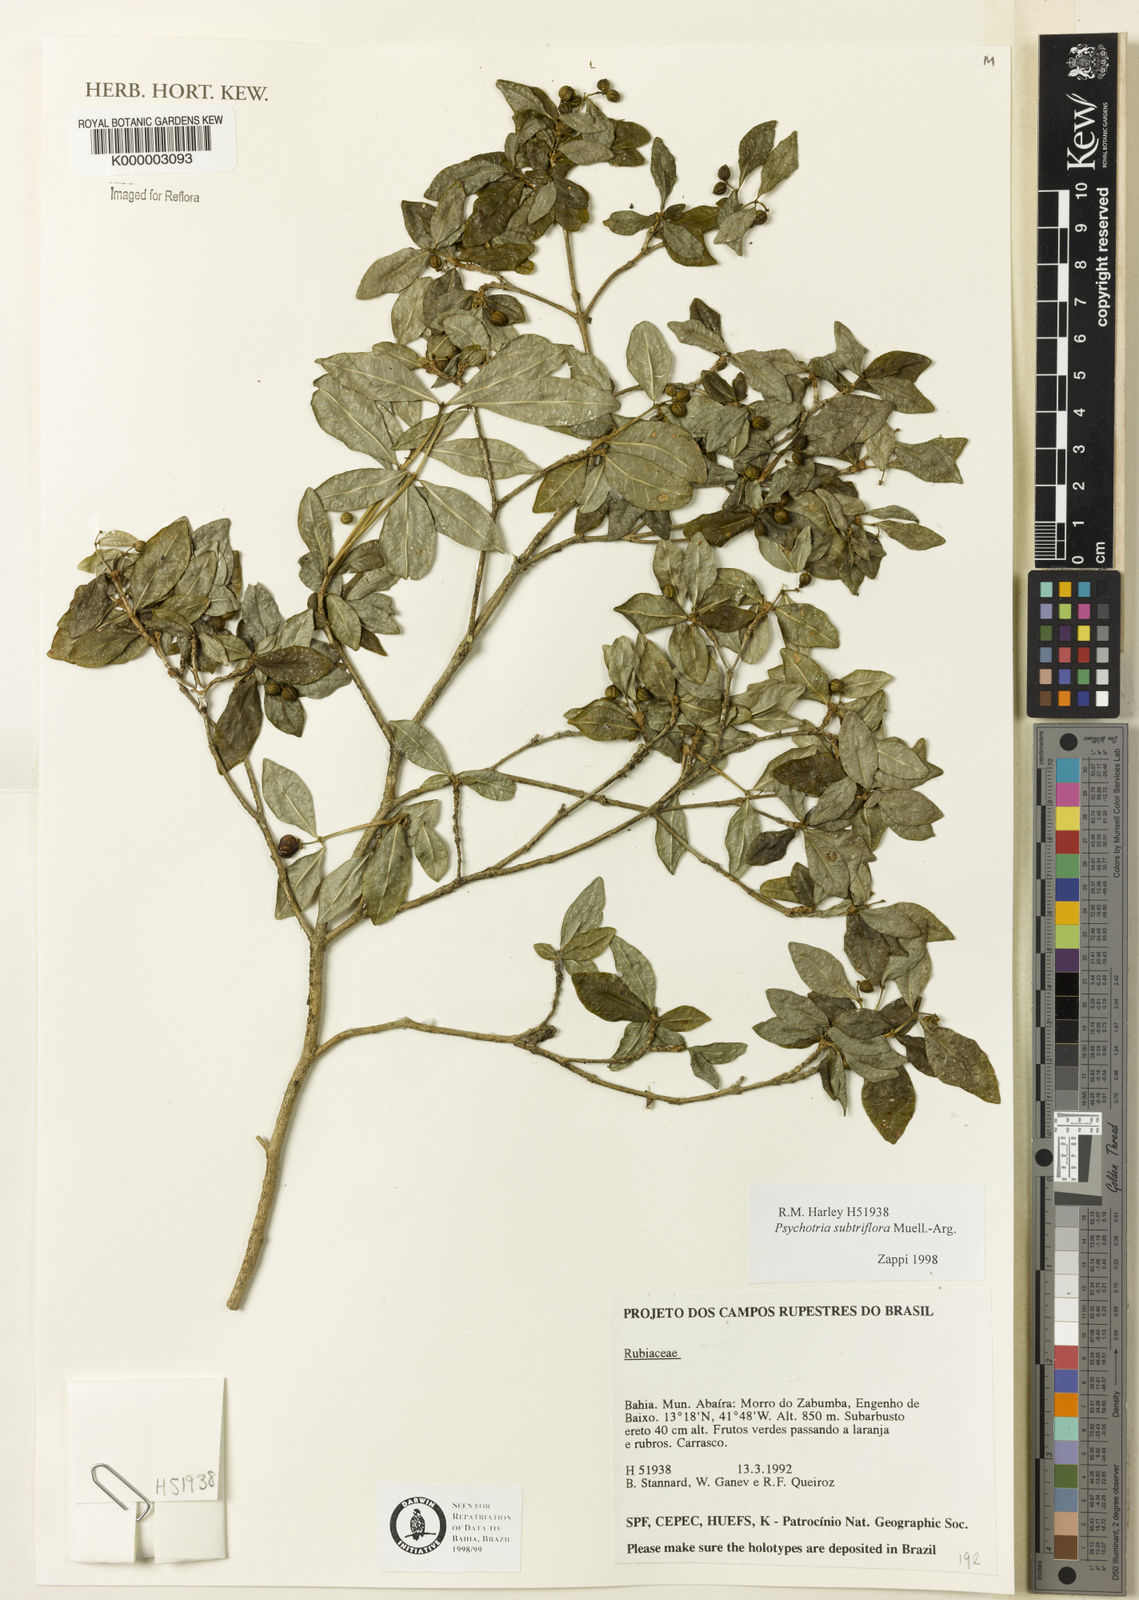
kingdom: Plantae
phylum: Tracheophyta
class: Magnoliopsida
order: Gentianales
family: Rubiaceae
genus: Psychotria
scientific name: Psychotria subtriflora
